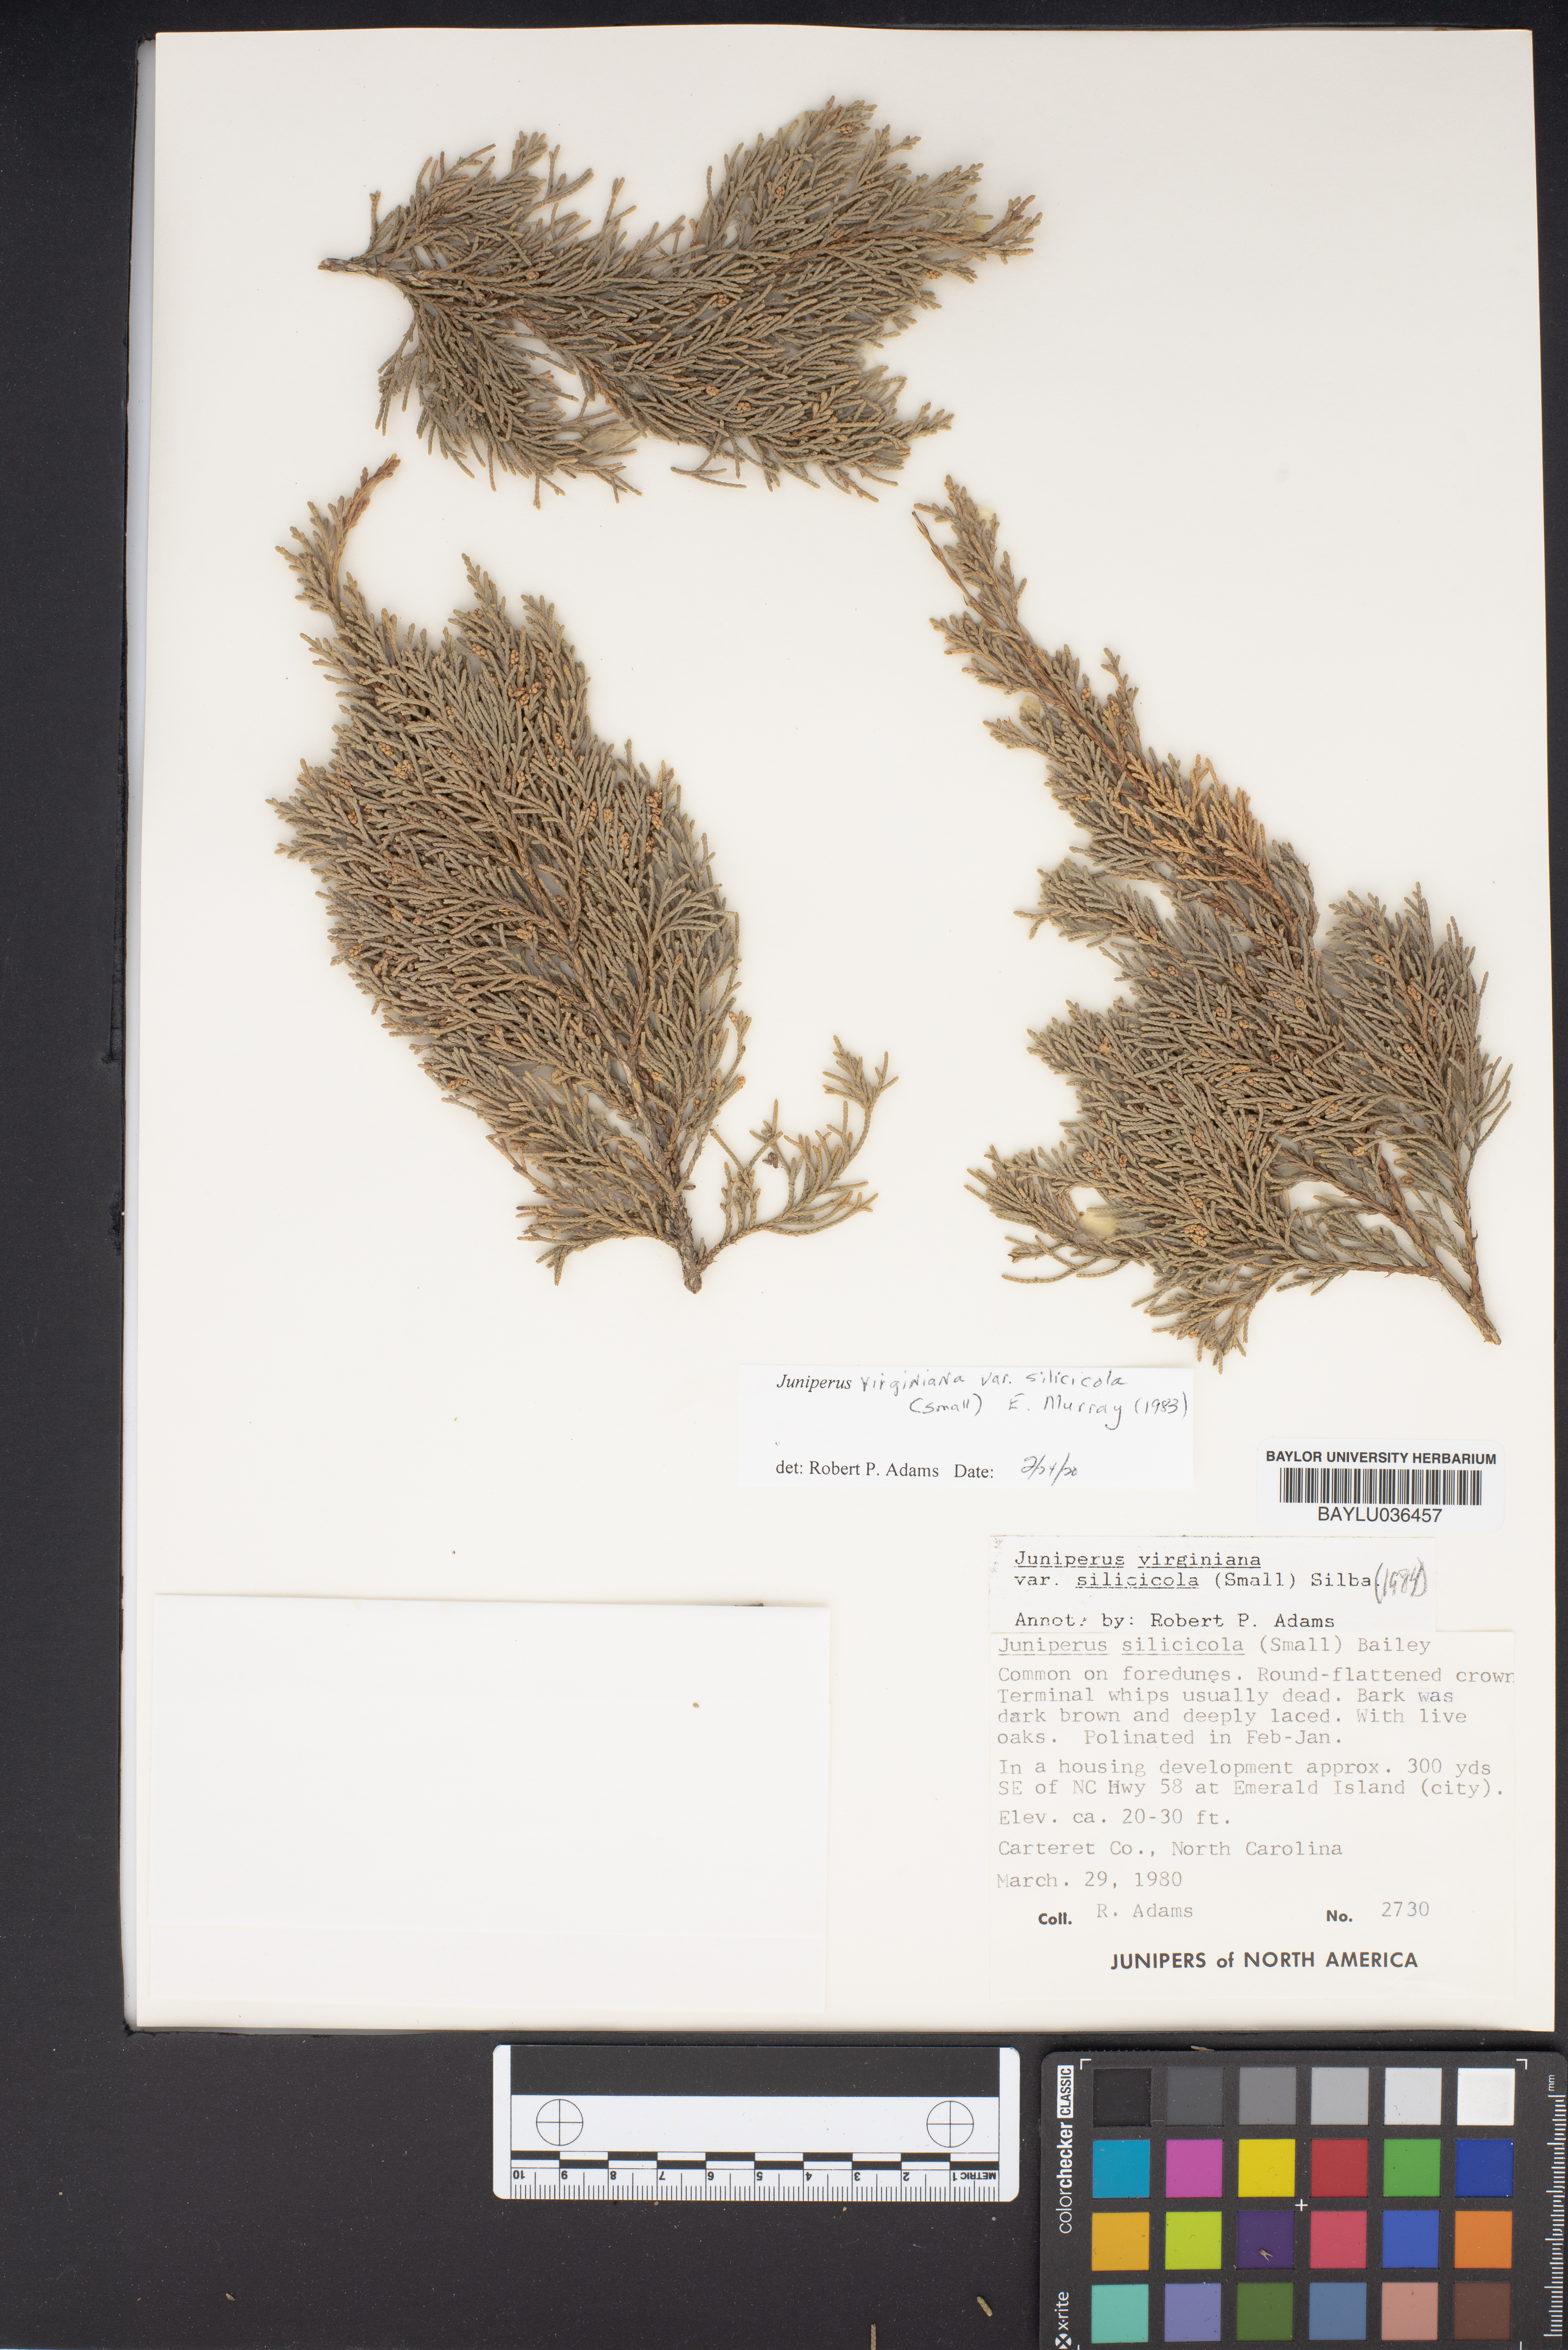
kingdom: Plantae
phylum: Tracheophyta
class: Pinopsida
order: Pinales
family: Cupressaceae
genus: Juniperus
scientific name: Juniperus virginiana
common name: Red juniper
